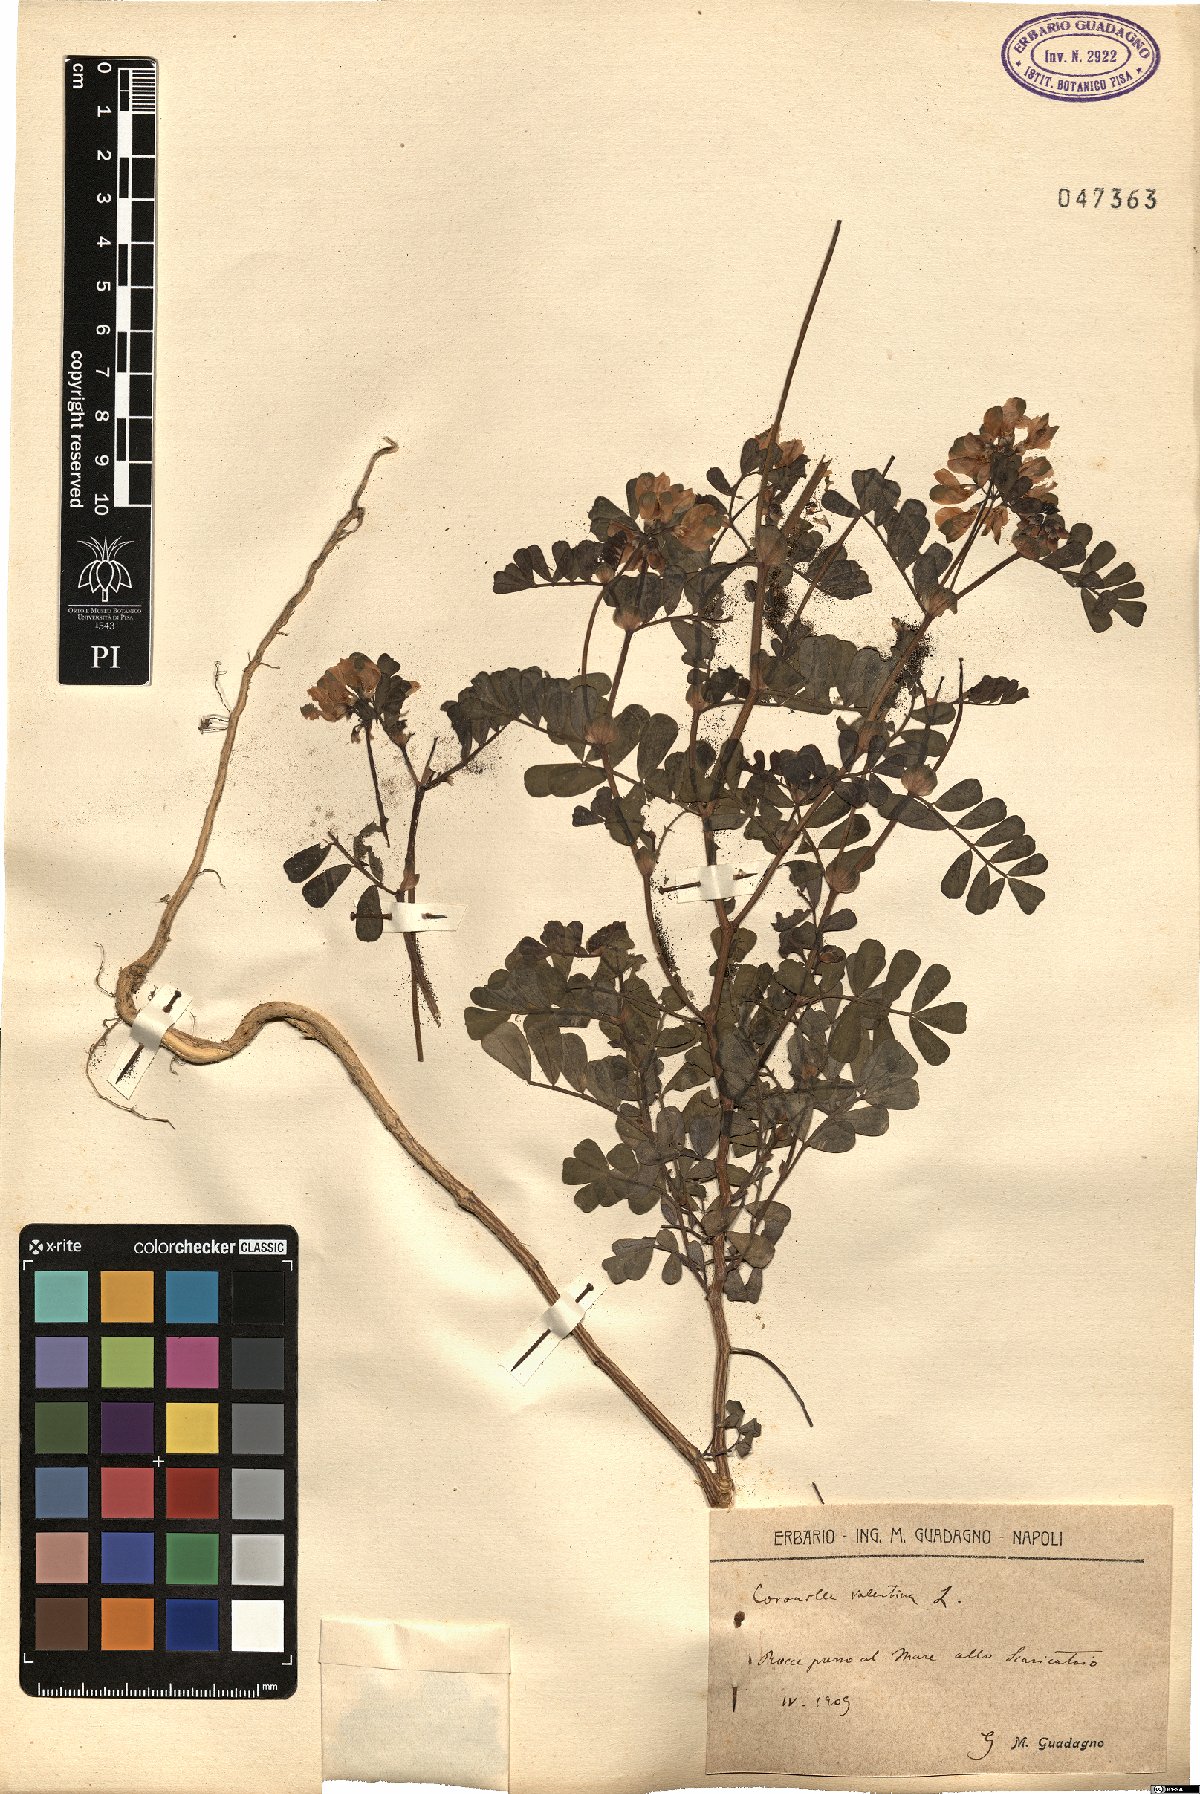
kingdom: Plantae
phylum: Tracheophyta
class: Magnoliopsida
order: Fabales
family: Fabaceae
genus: Coronilla
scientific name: Coronilla valentina
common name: Shrubby scorpion-vetch
